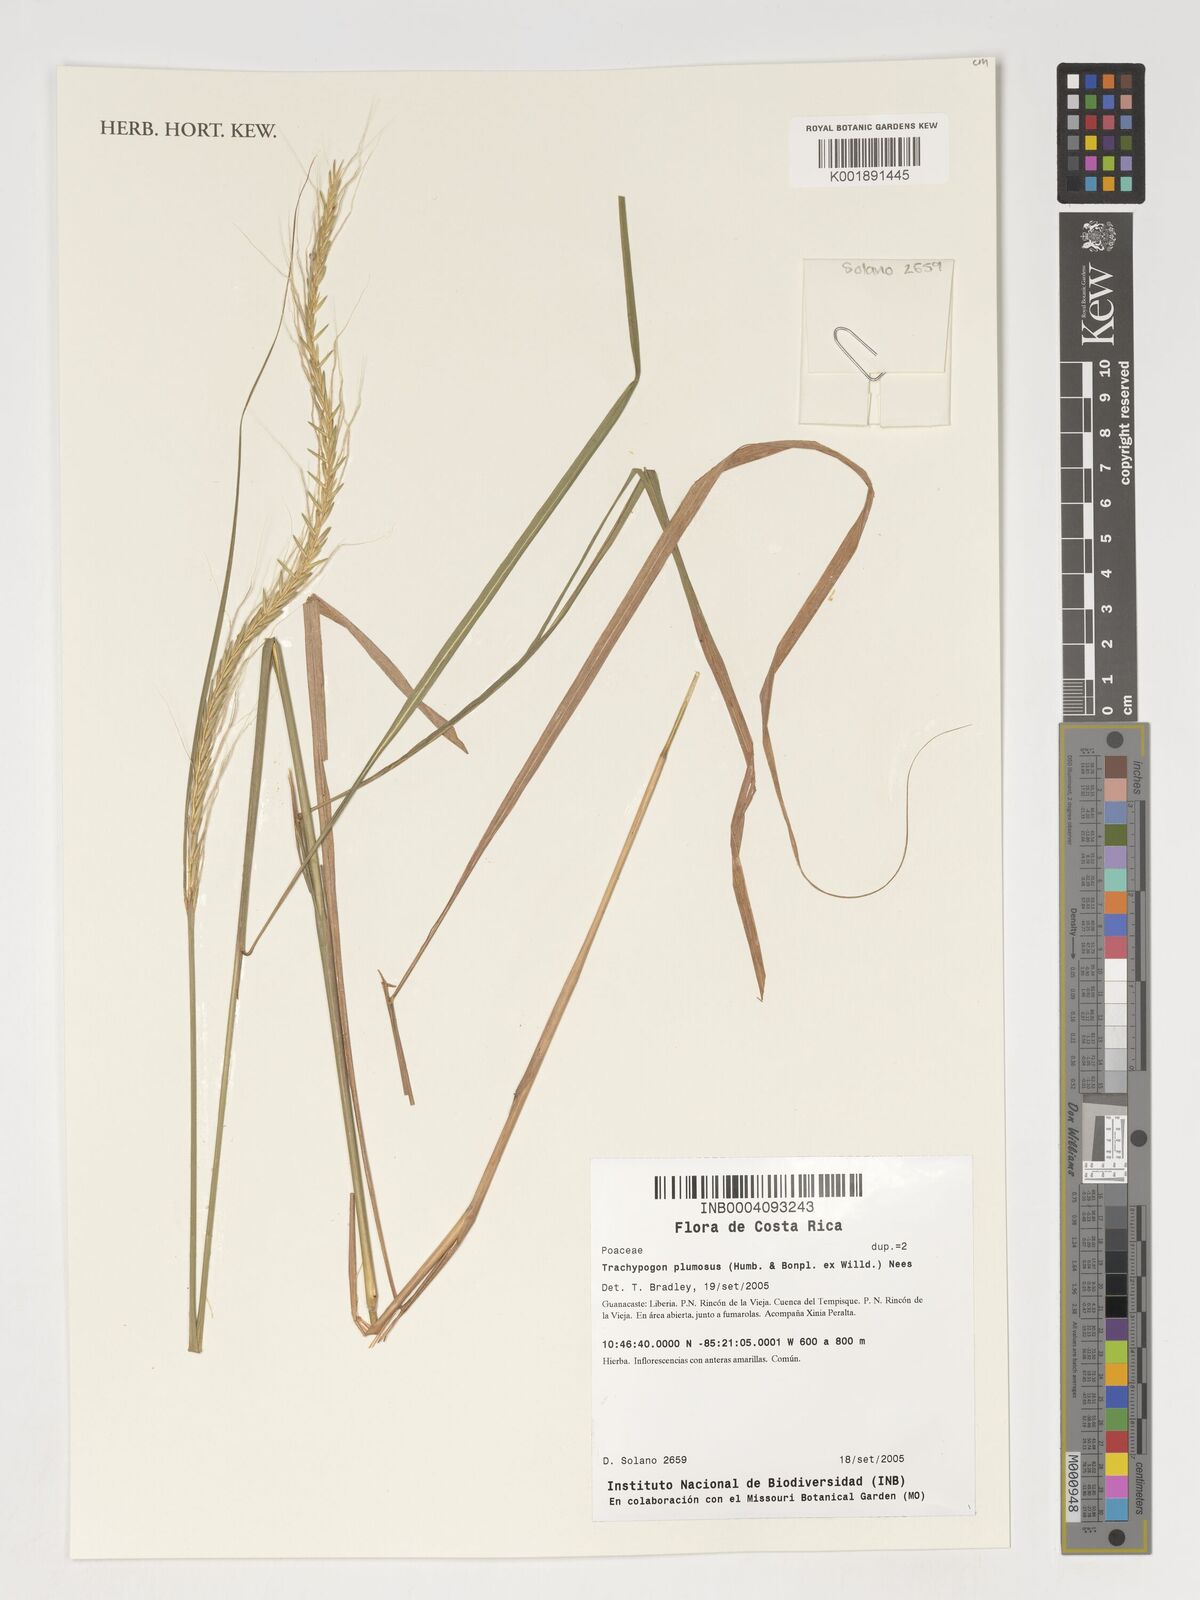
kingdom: Plantae
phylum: Tracheophyta
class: Liliopsida
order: Poales
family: Poaceae
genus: Trachypogon
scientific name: Trachypogon spicatus
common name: Crinkle-awn
